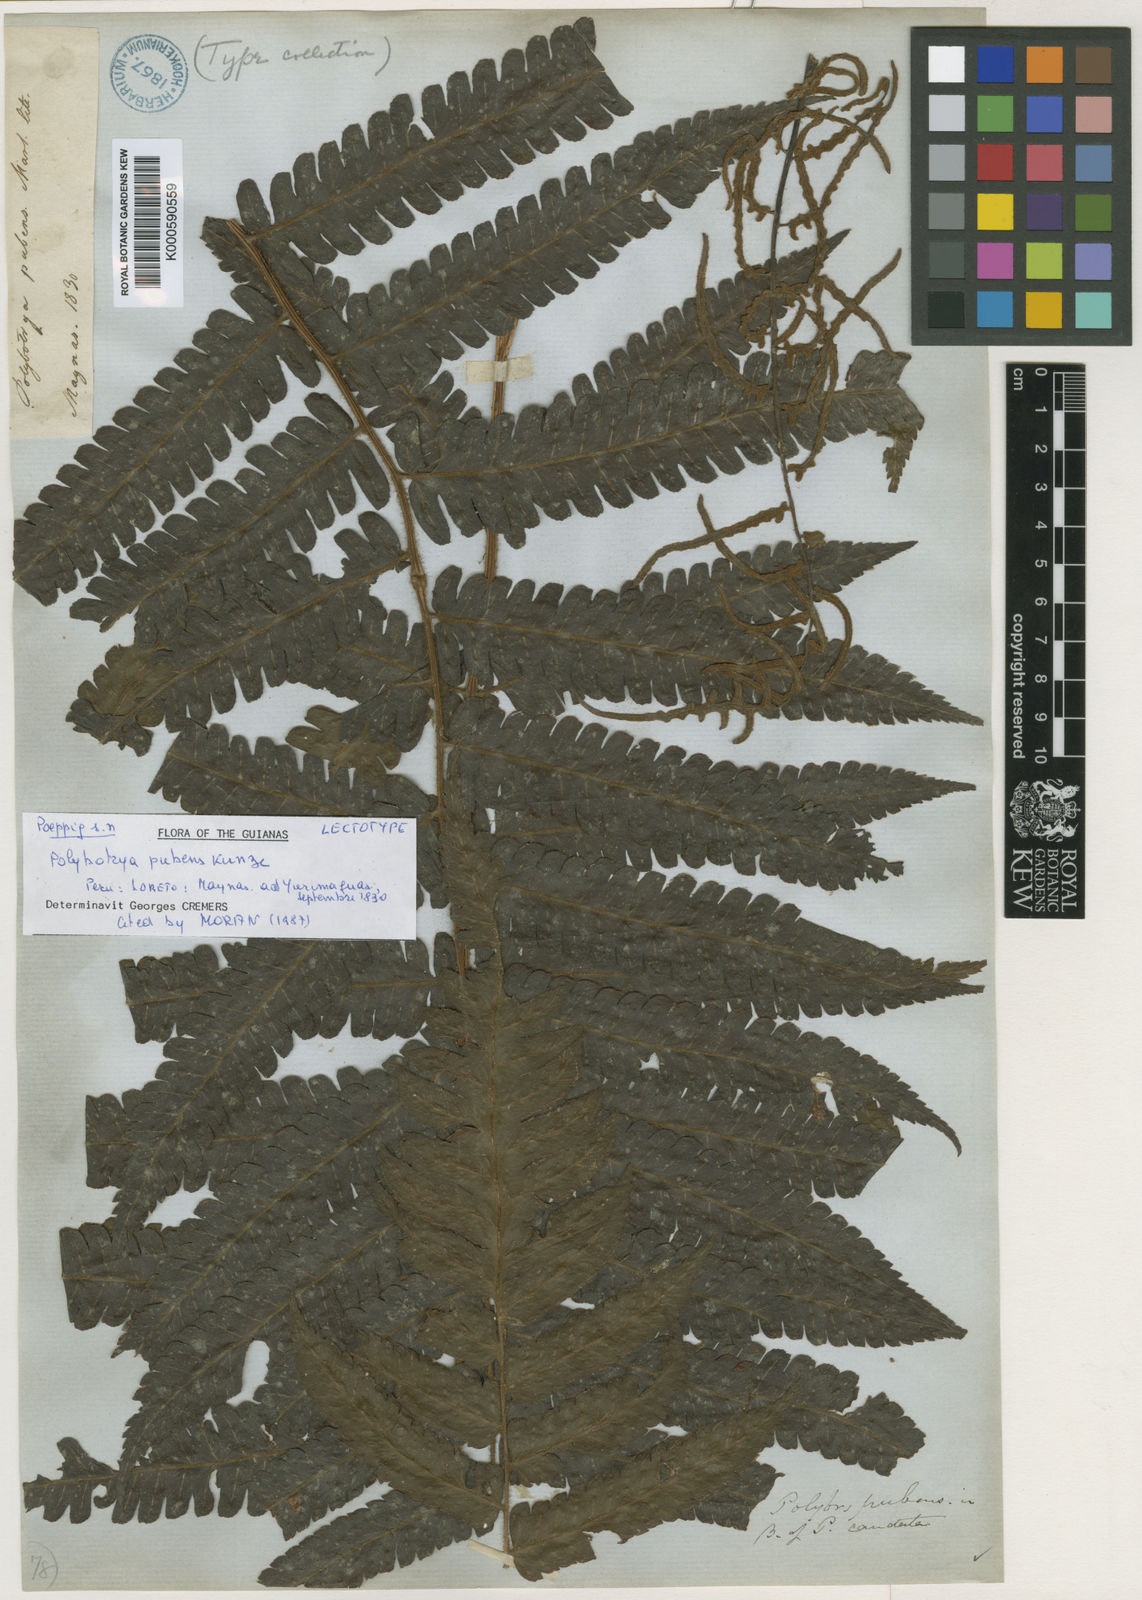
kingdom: Plantae
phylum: Tracheophyta
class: Polypodiopsida
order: Polypodiales
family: Dryopteridaceae
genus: Polybotrya
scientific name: Polybotrya
